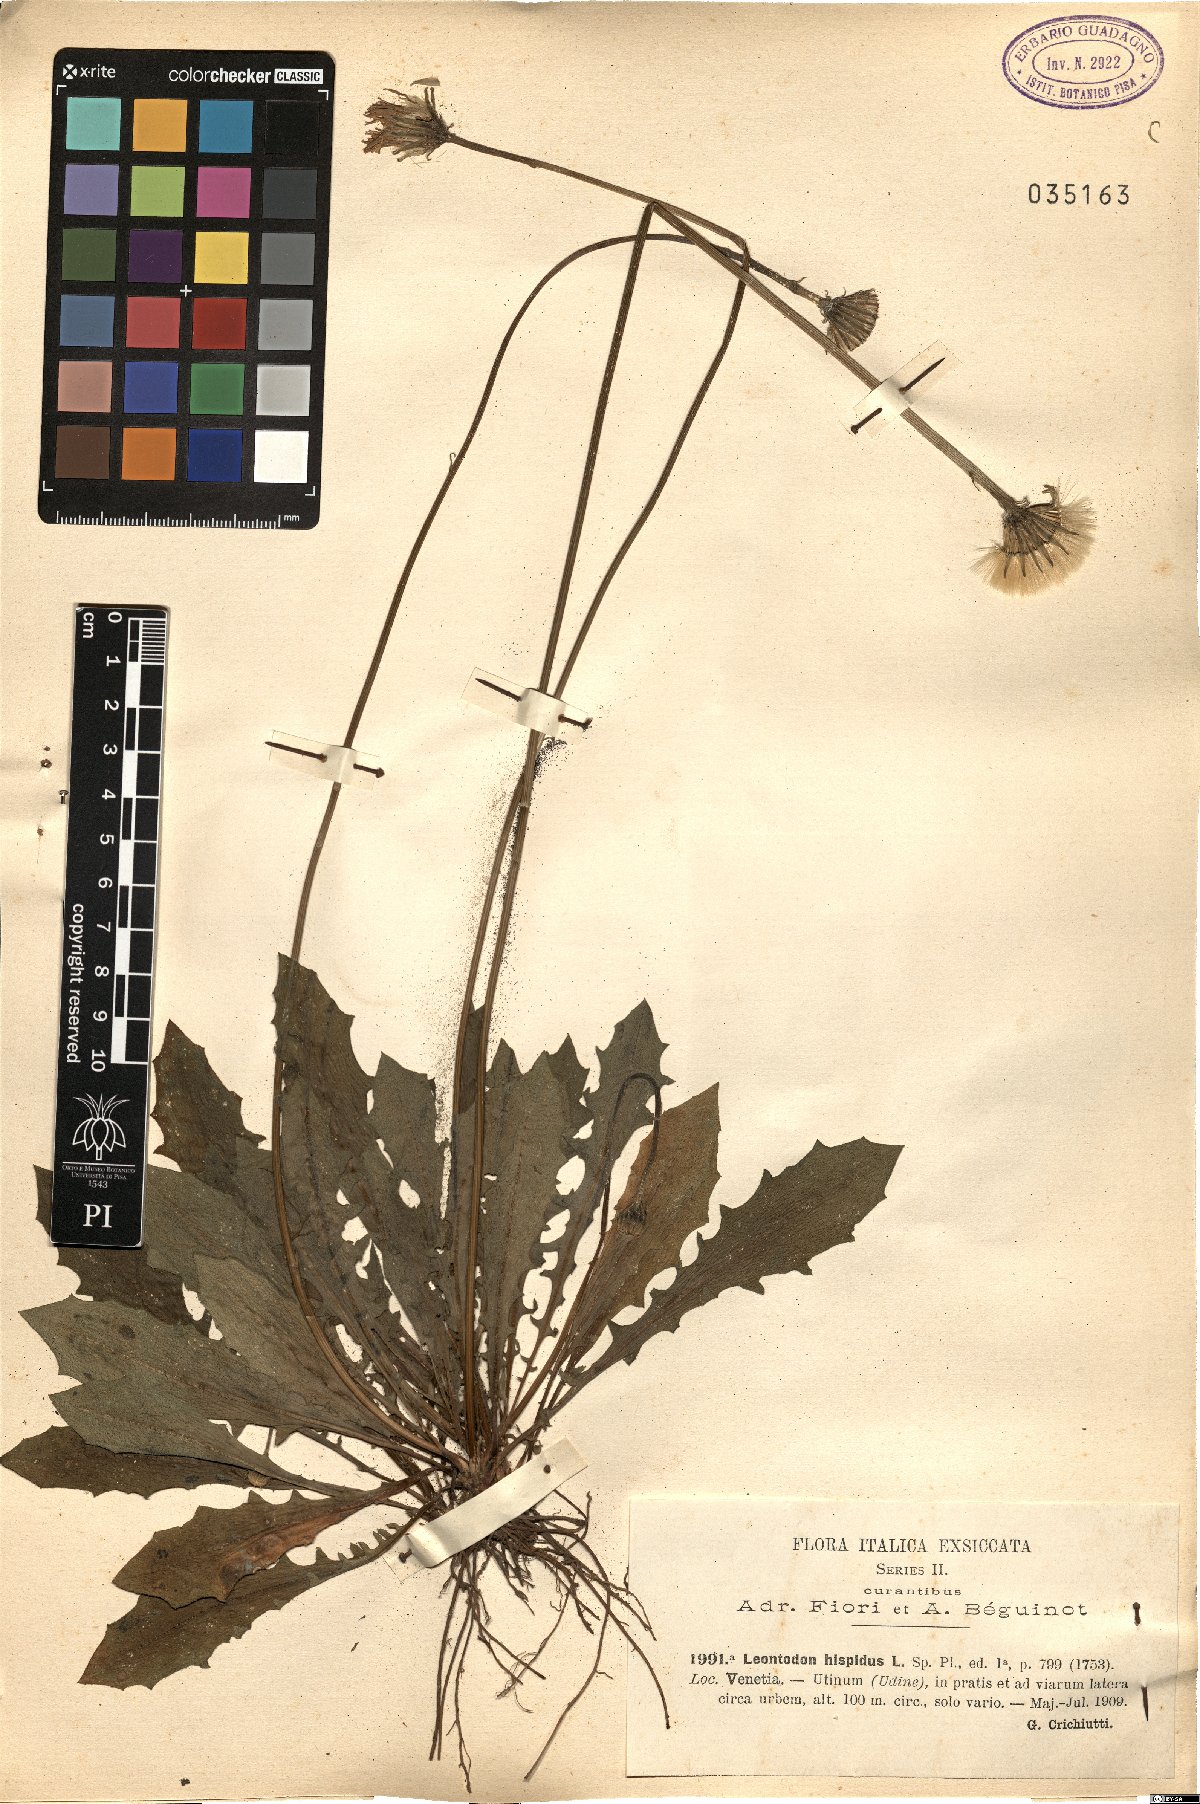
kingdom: Plantae
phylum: Tracheophyta
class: Magnoliopsida
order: Asterales
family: Asteraceae
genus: Leontodon
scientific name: Leontodon hispidus
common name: Rough hawkbit
